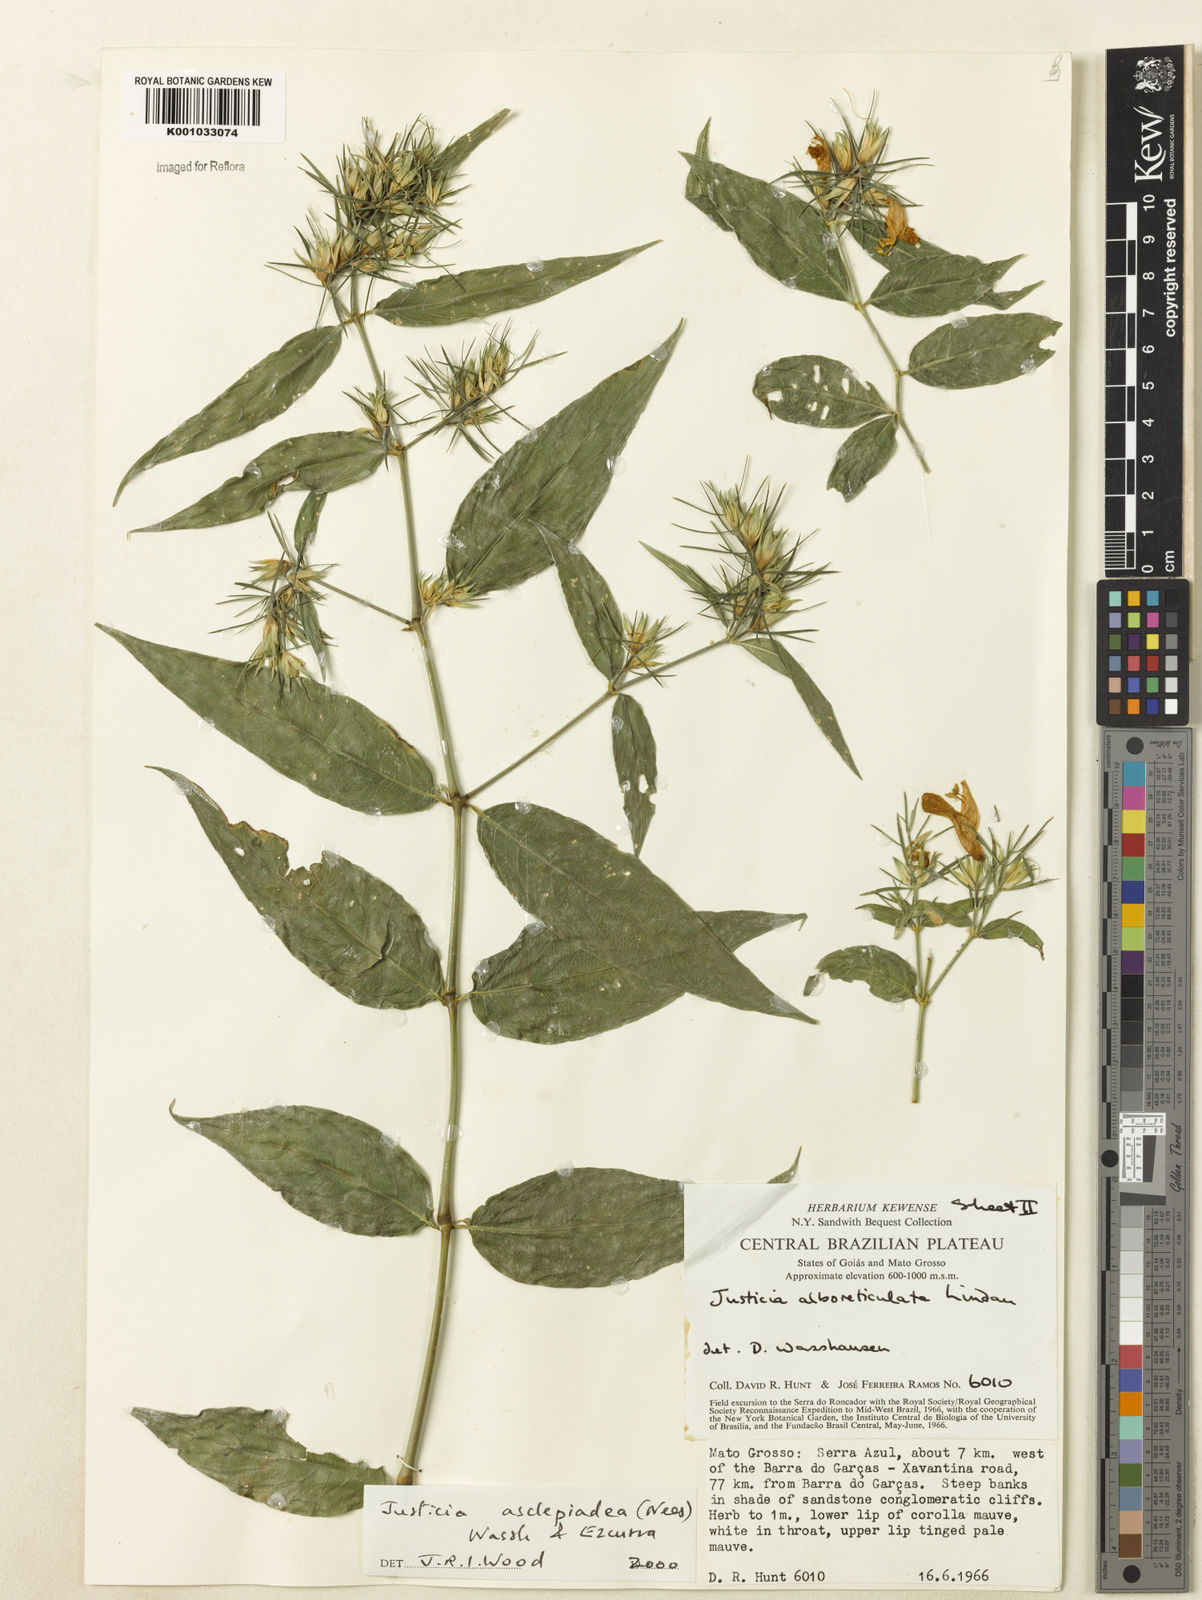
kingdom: Plantae
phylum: Tracheophyta
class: Magnoliopsida
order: Lamiales
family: Acanthaceae
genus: Justicia
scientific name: Justicia asclepiadea
